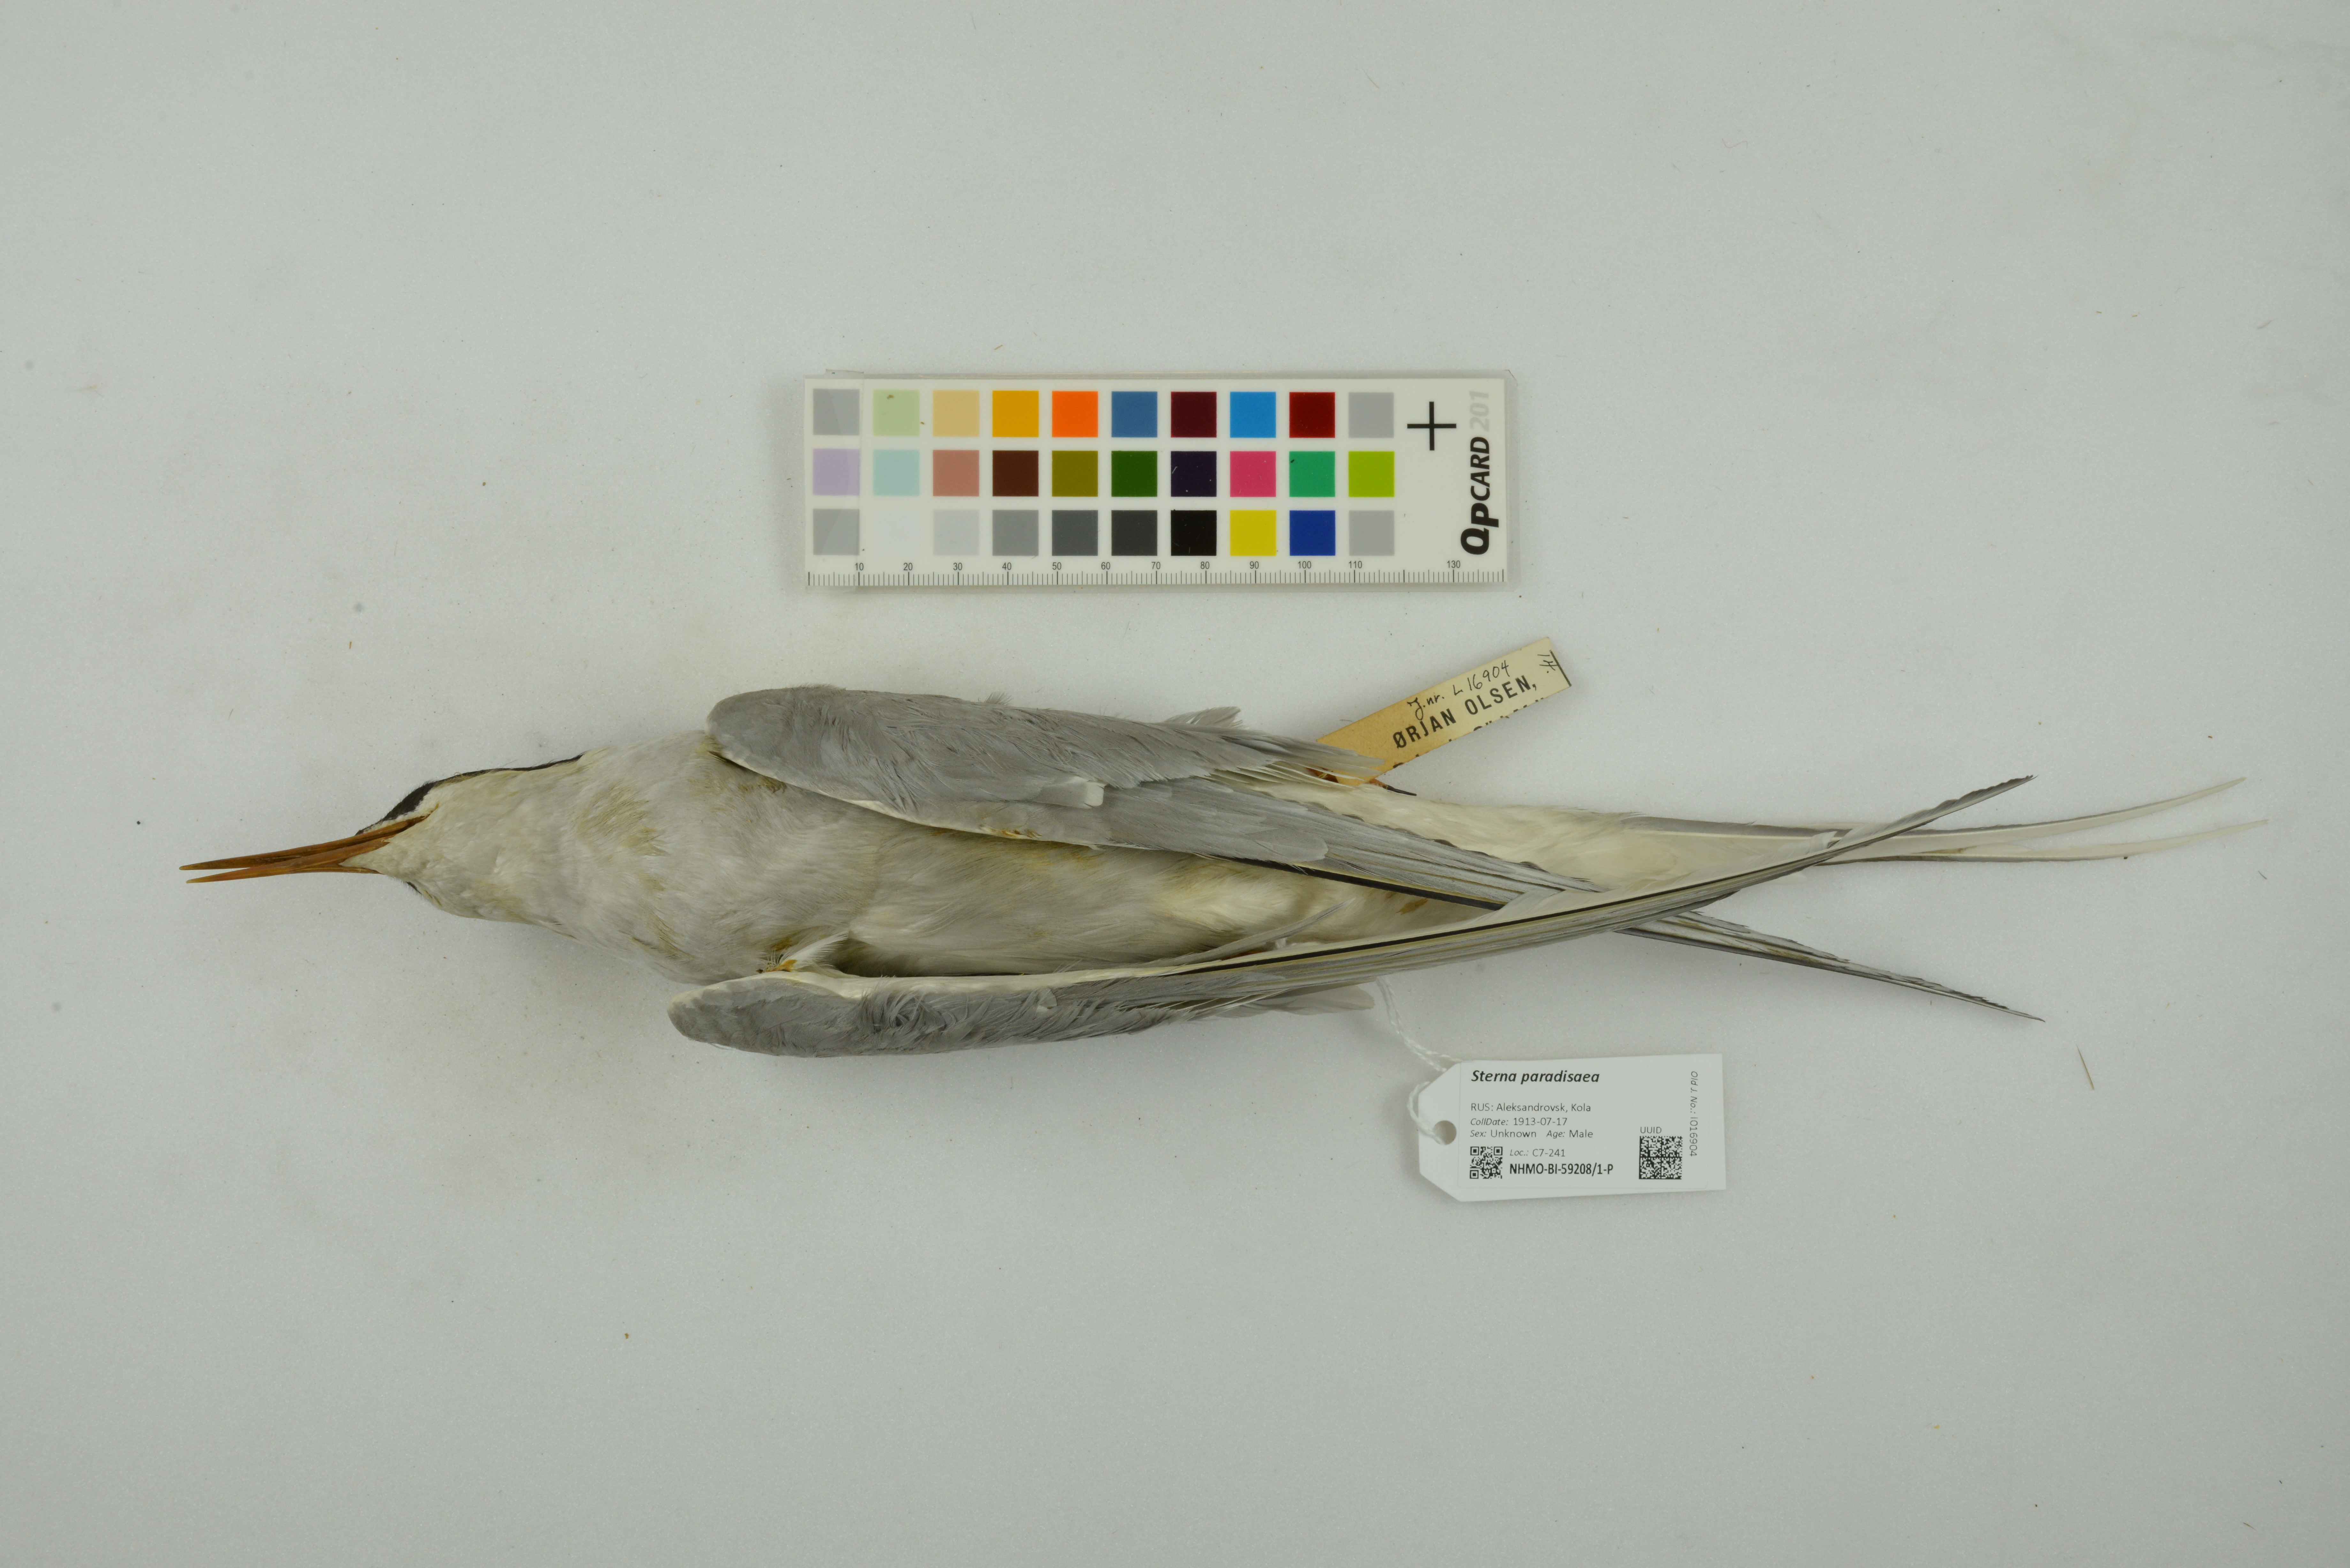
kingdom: Animalia
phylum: Chordata
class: Aves
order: Charadriiformes
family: Laridae
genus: Sterna
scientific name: Sterna paradisaea
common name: Arctic tern
